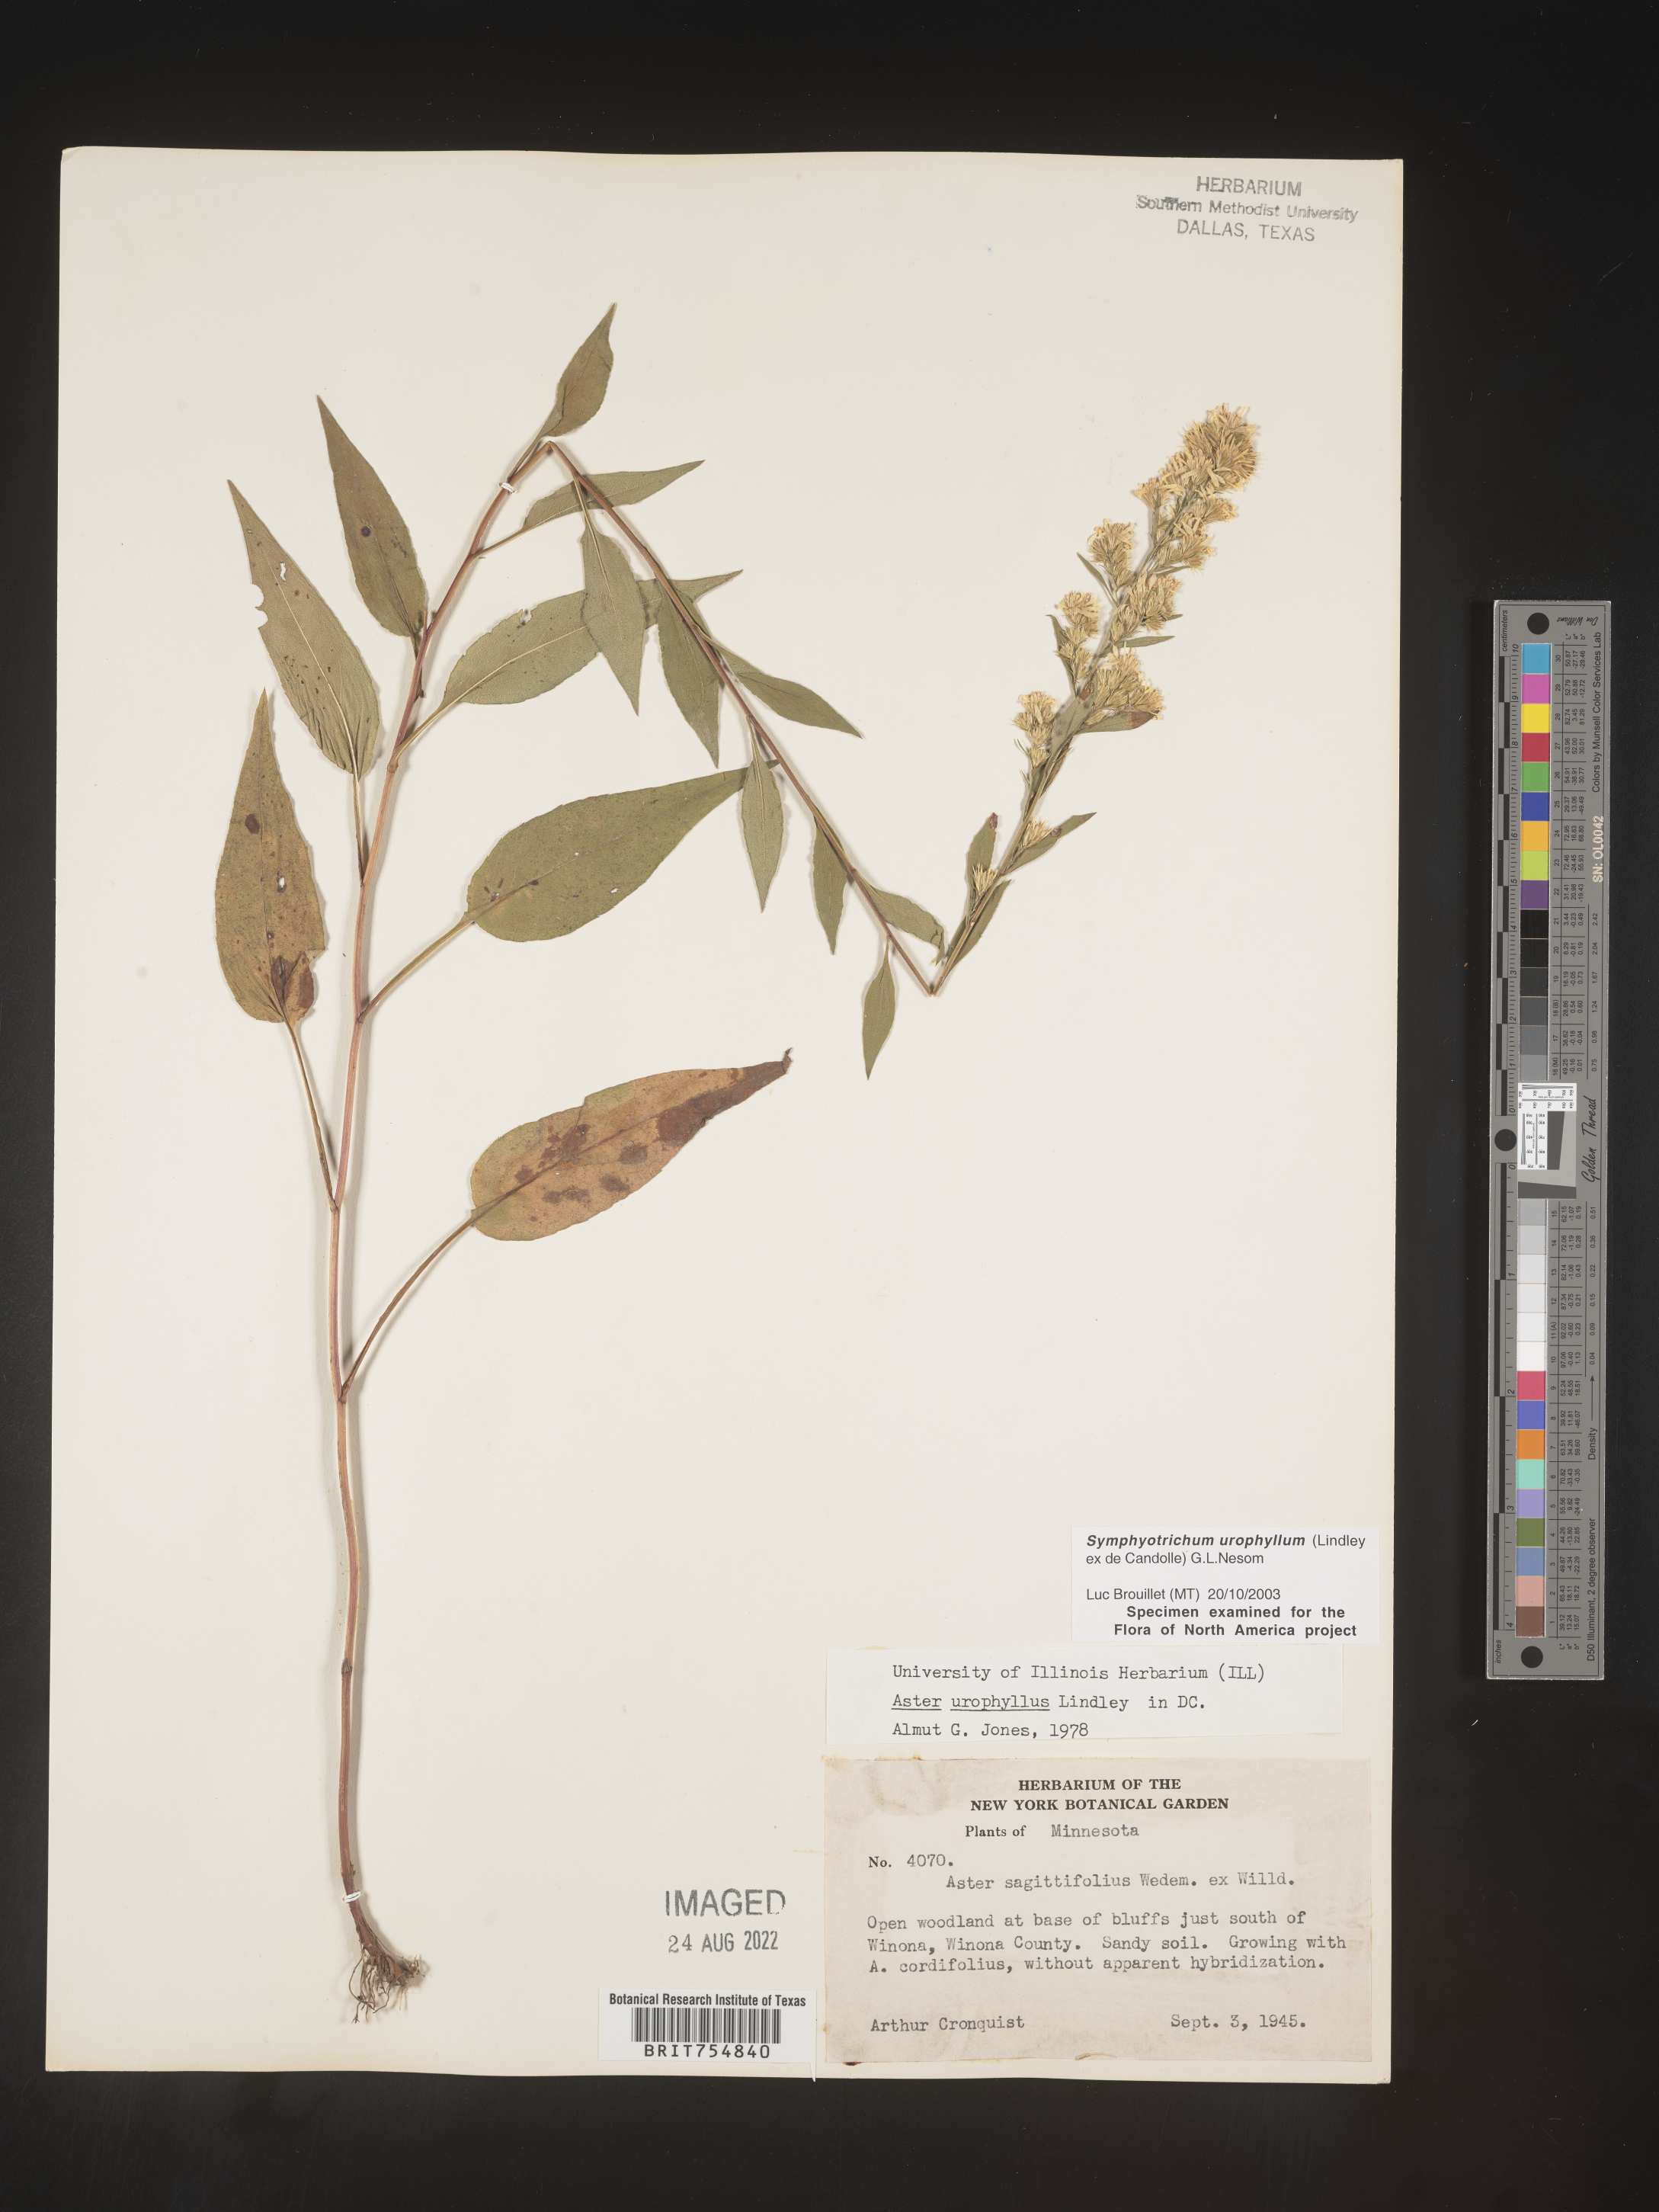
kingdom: Plantae
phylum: Tracheophyta
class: Magnoliopsida
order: Asterales
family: Asteraceae
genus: Symphyotrichum
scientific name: Symphyotrichum urophyllum
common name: Arrow-leaved aster
